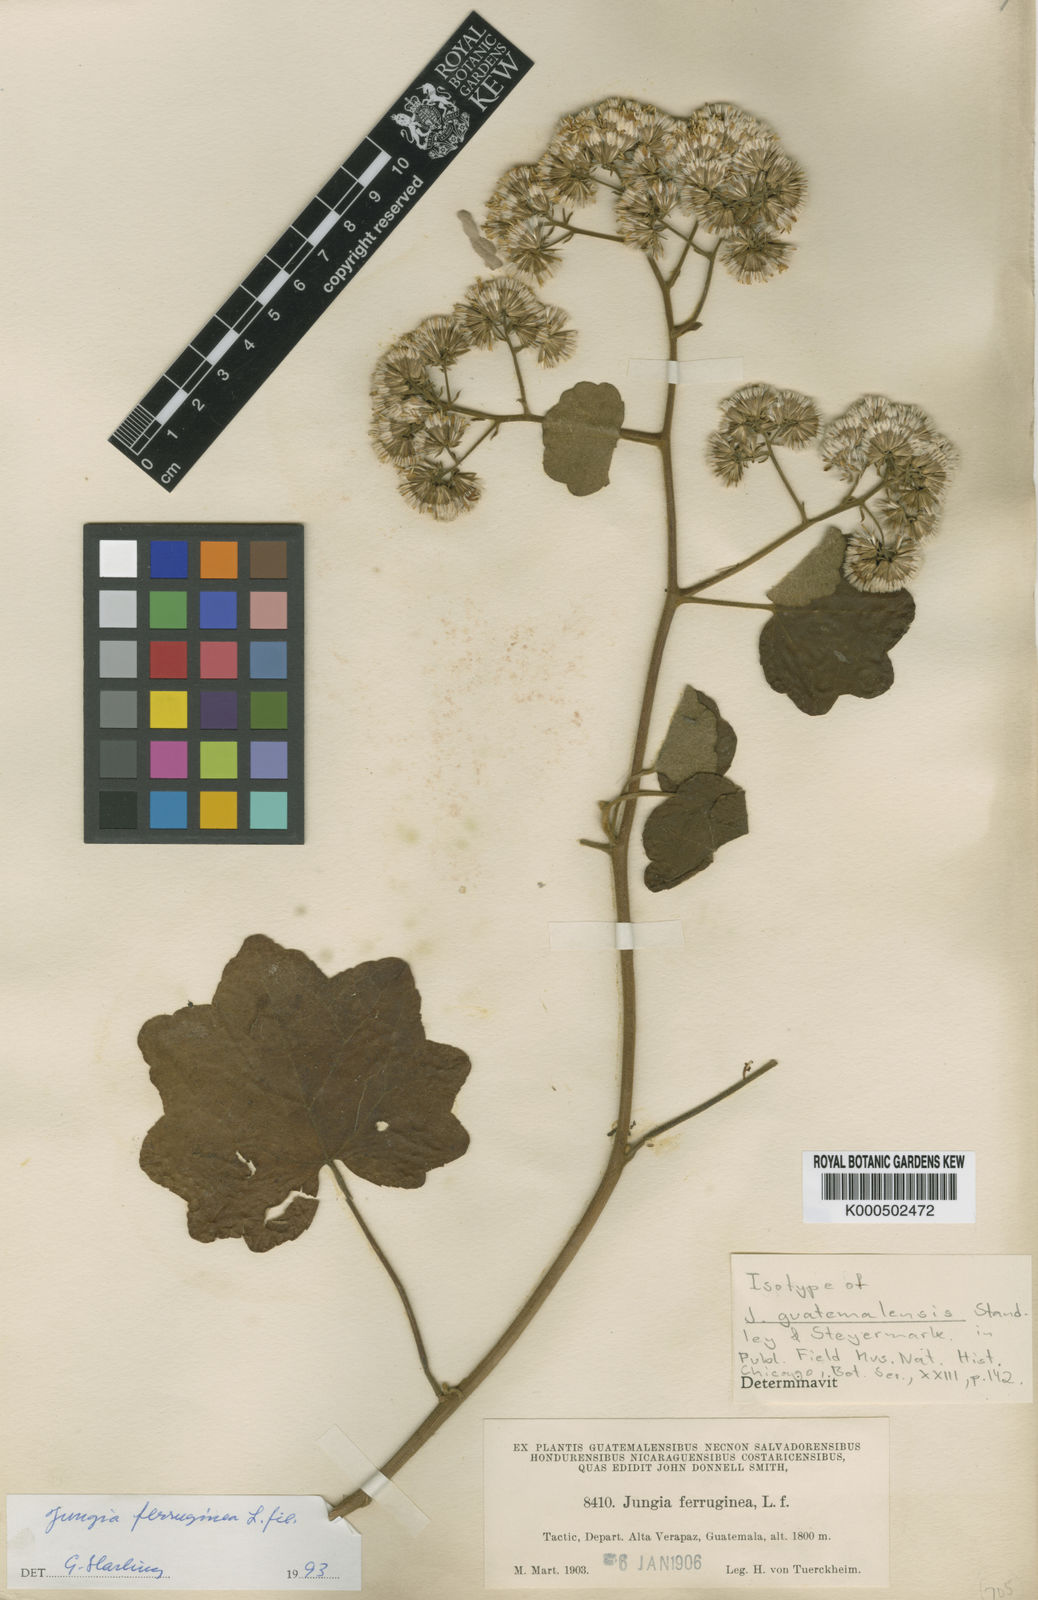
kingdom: Plantae
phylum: Tracheophyta
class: Magnoliopsida
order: Asterales
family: Asteraceae
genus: Jungia
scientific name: Jungia ferruginea
